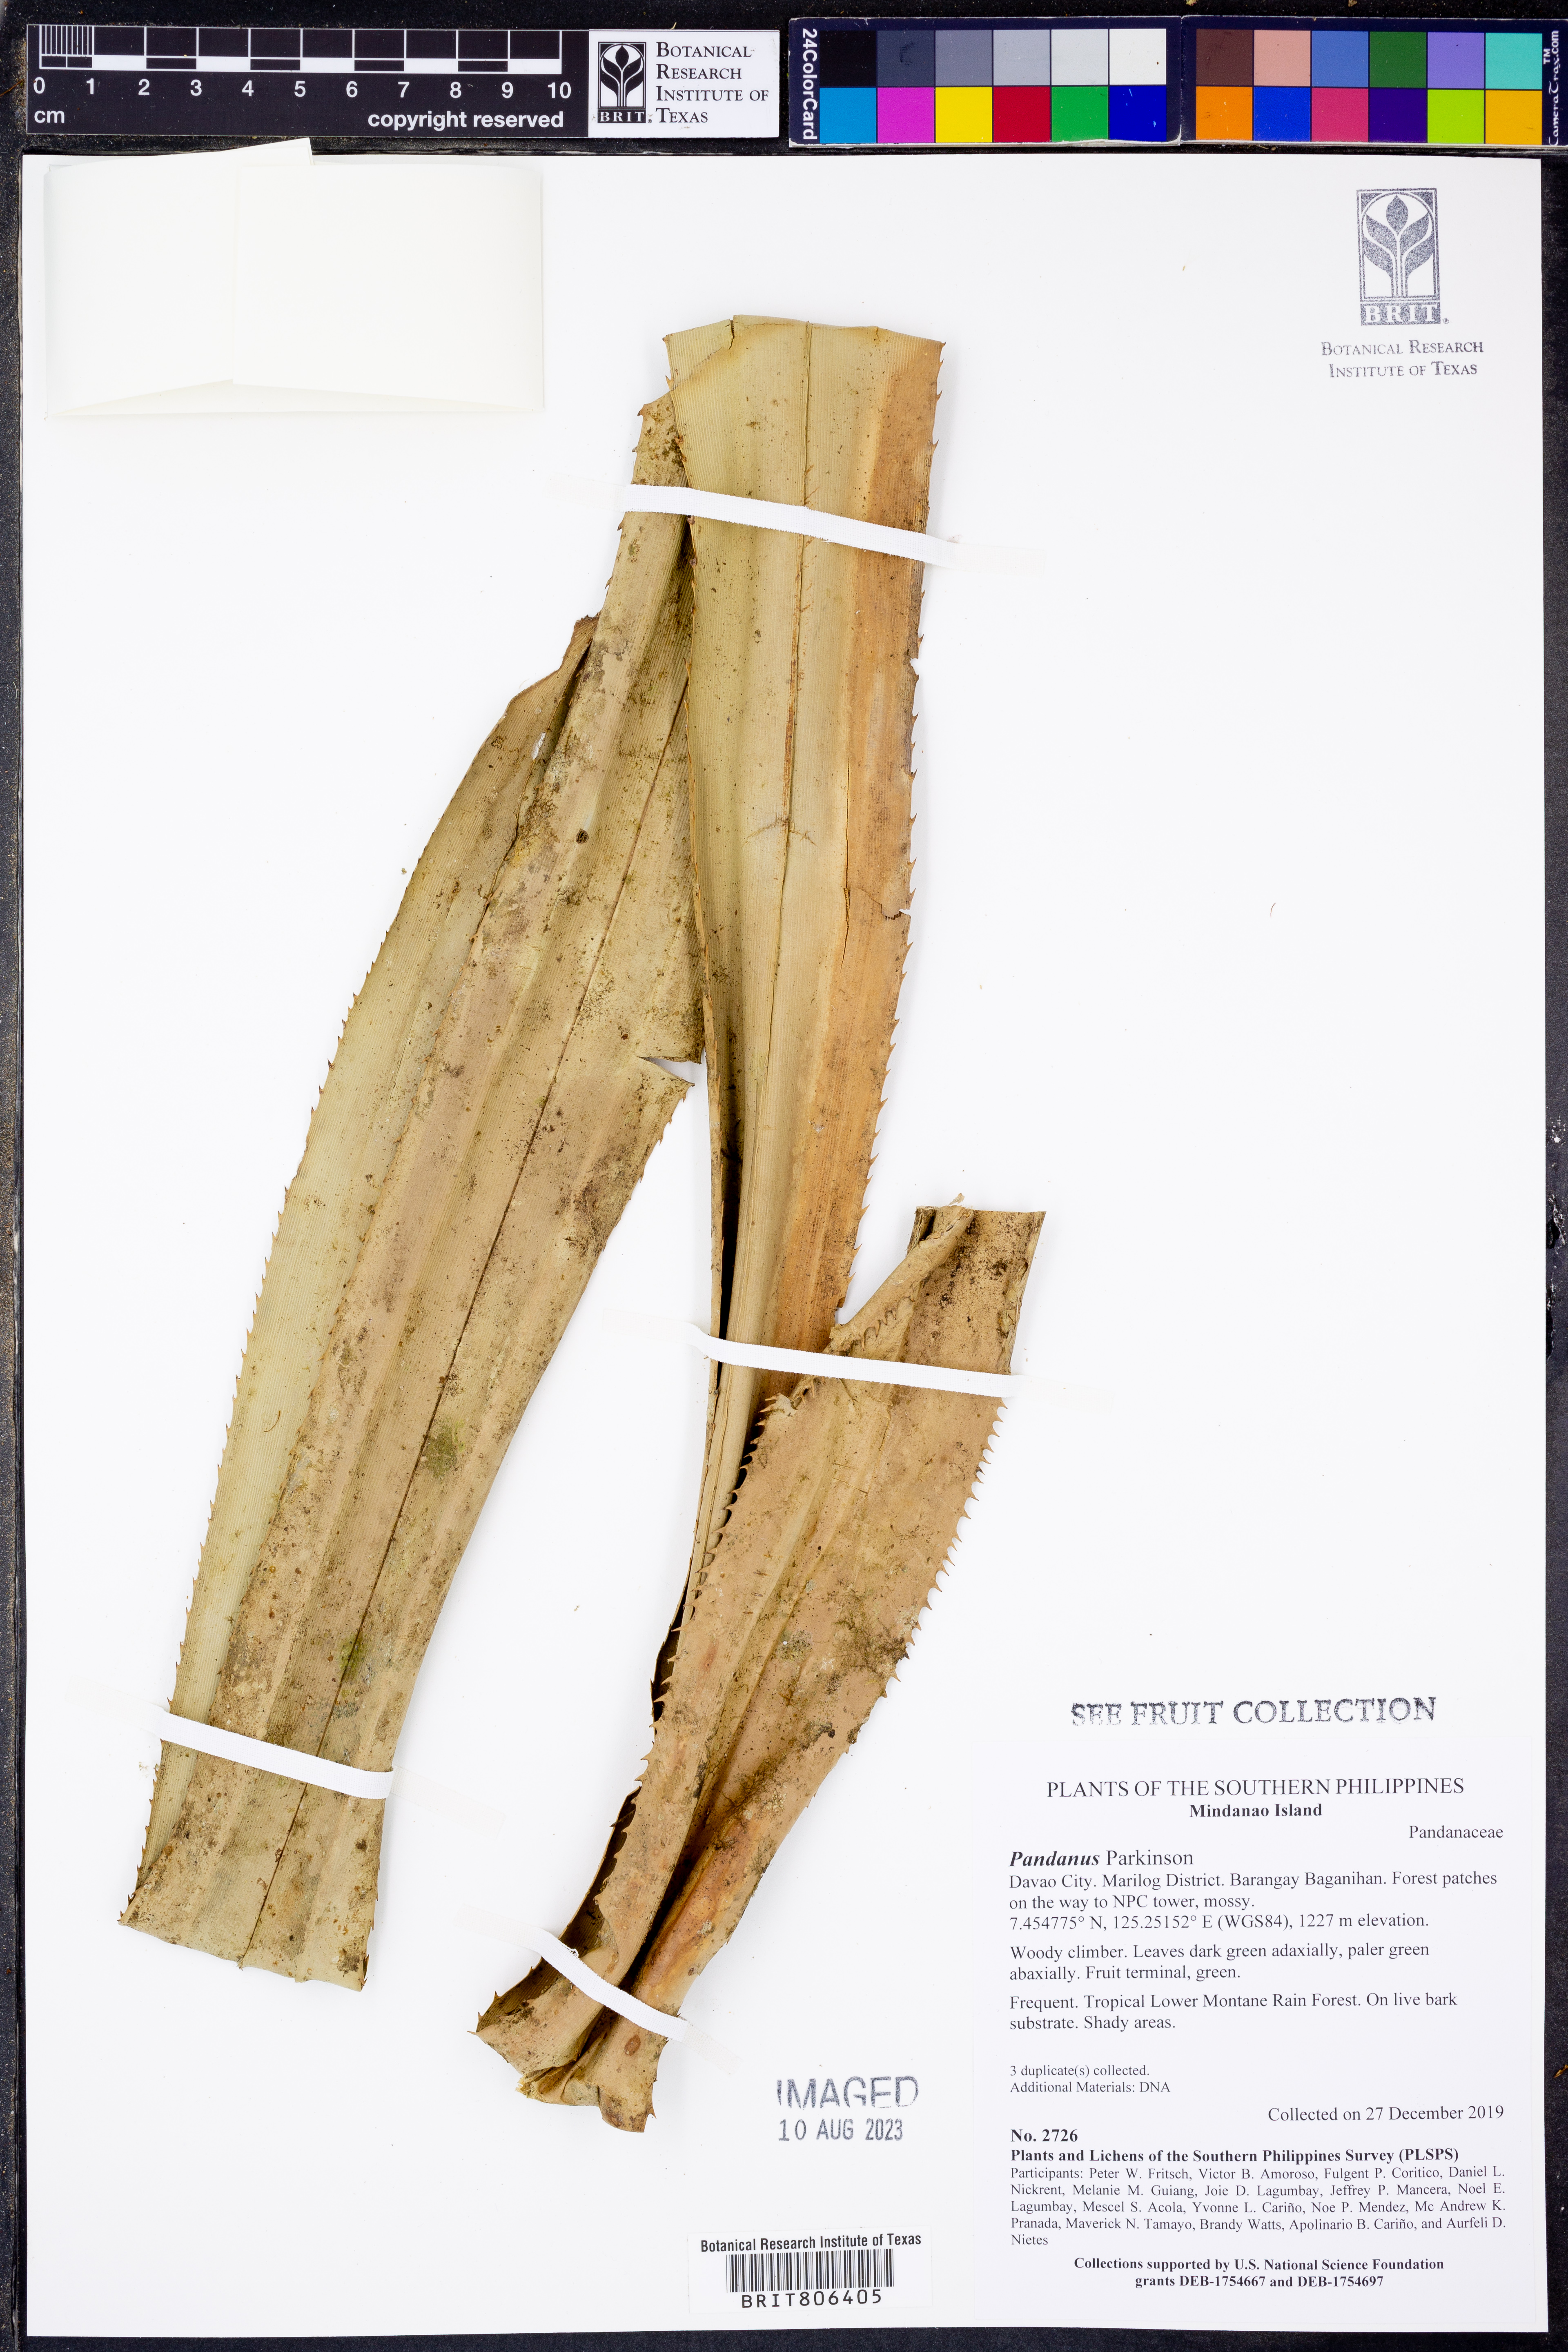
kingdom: Plantae
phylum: Tracheophyta
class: Liliopsida
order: Pandanales
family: Pandanaceae
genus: Pandanus
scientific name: Pandanus
